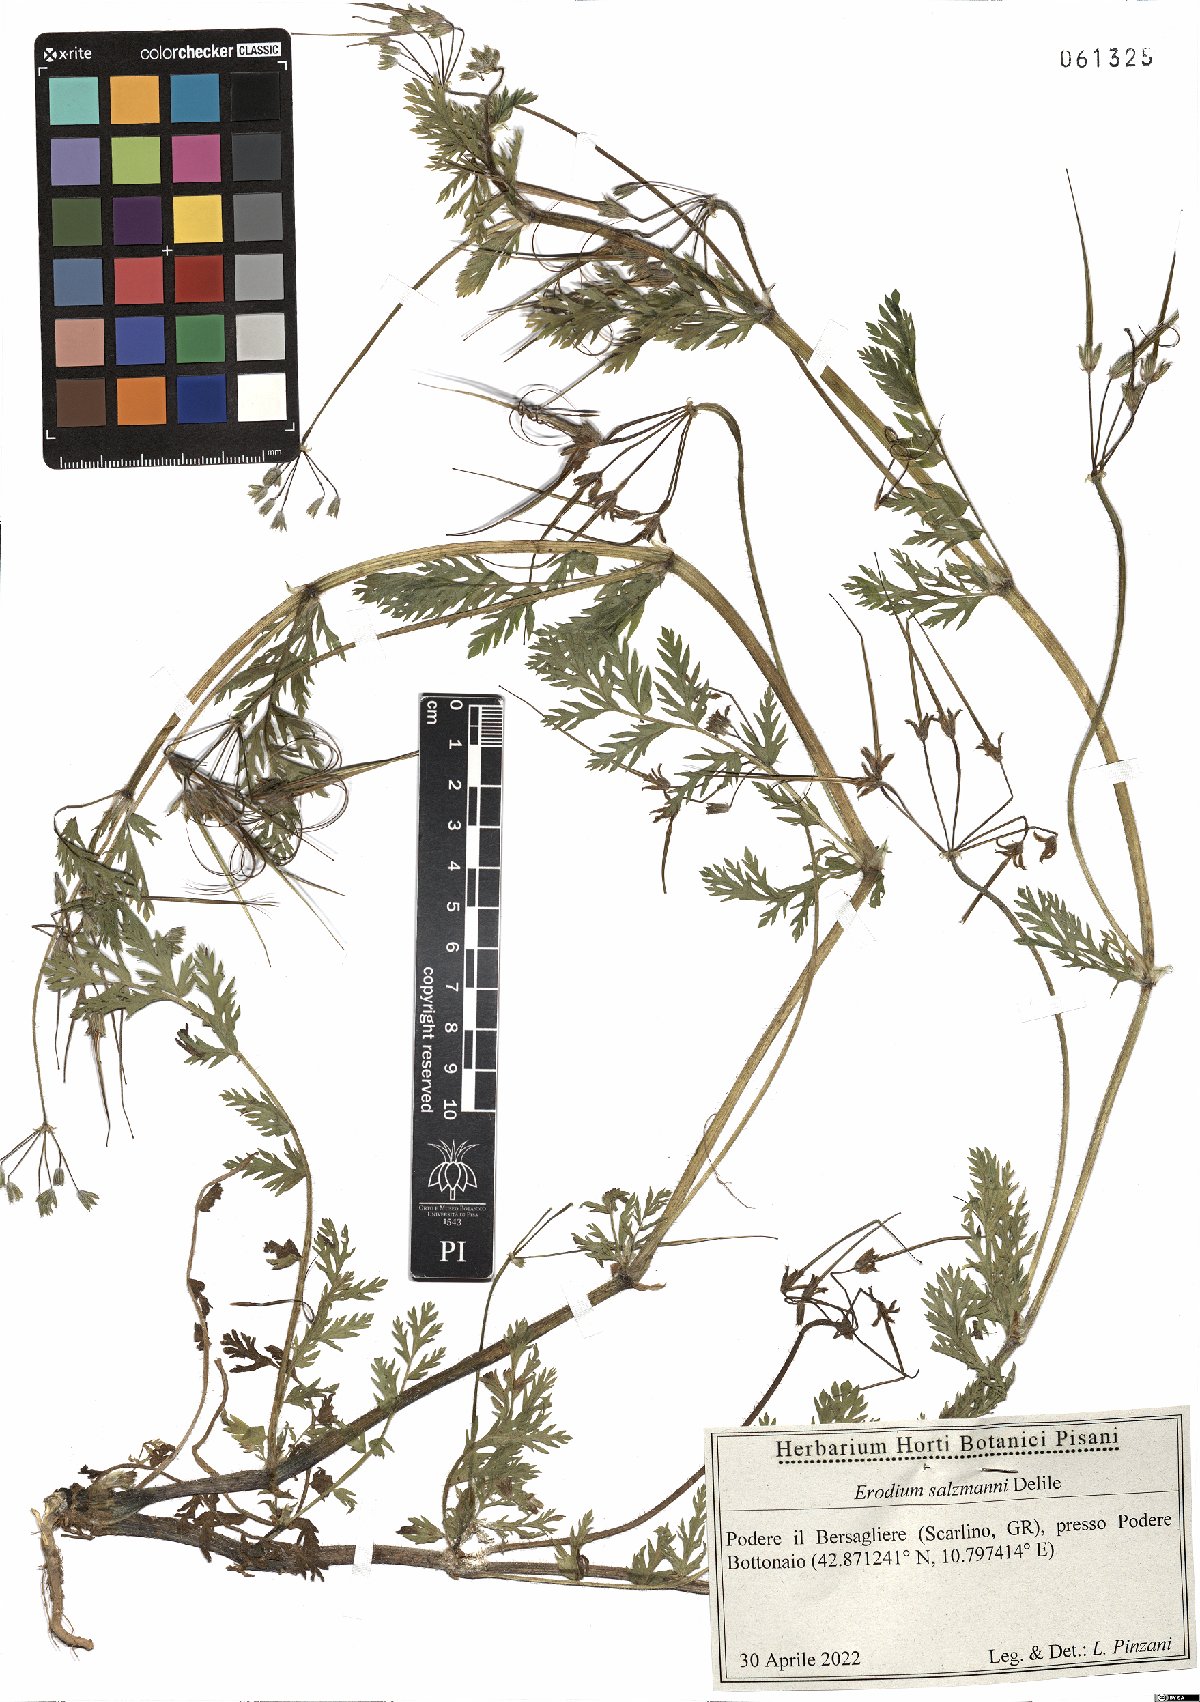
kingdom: Plantae
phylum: Tracheophyta
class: Magnoliopsida
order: Geraniales
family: Geraniaceae
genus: Erodium
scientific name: Erodium salzmannii
